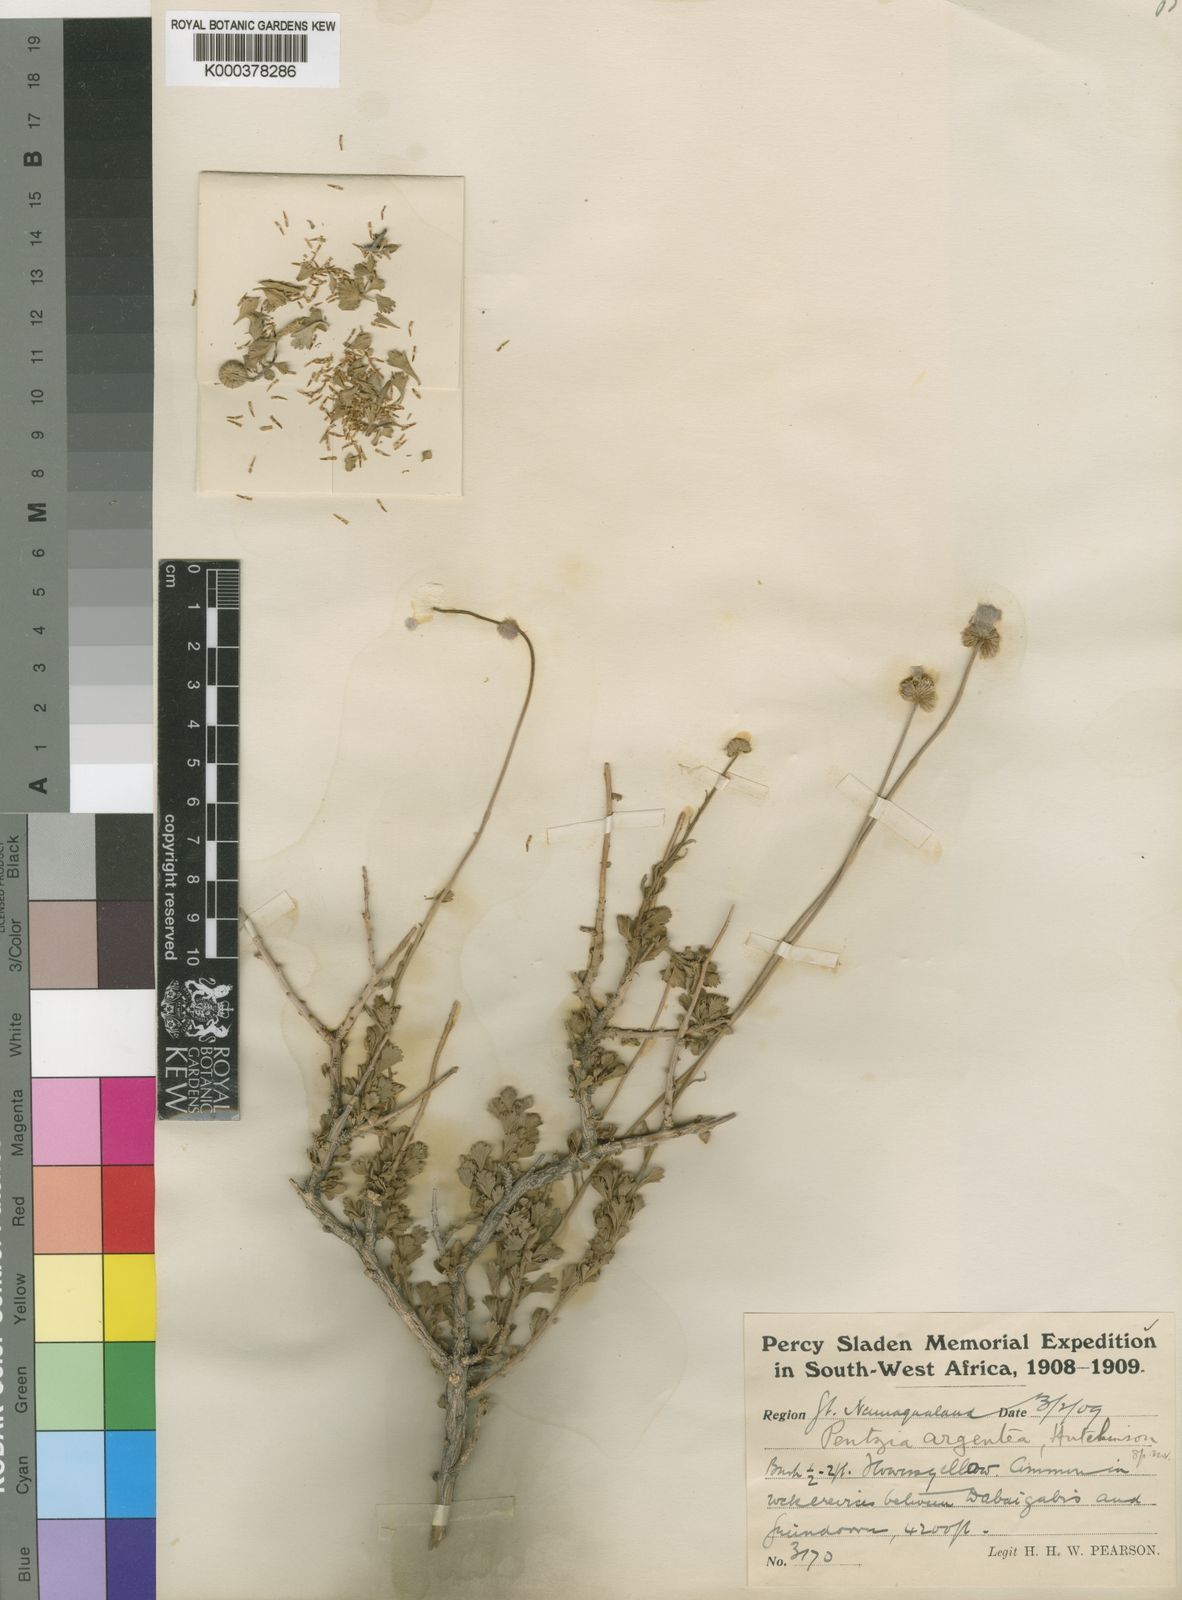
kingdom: Plantae
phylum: Tracheophyta
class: Magnoliopsida
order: Asterales
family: Asteraceae
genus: Pentzia
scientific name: Pentzia argentea
